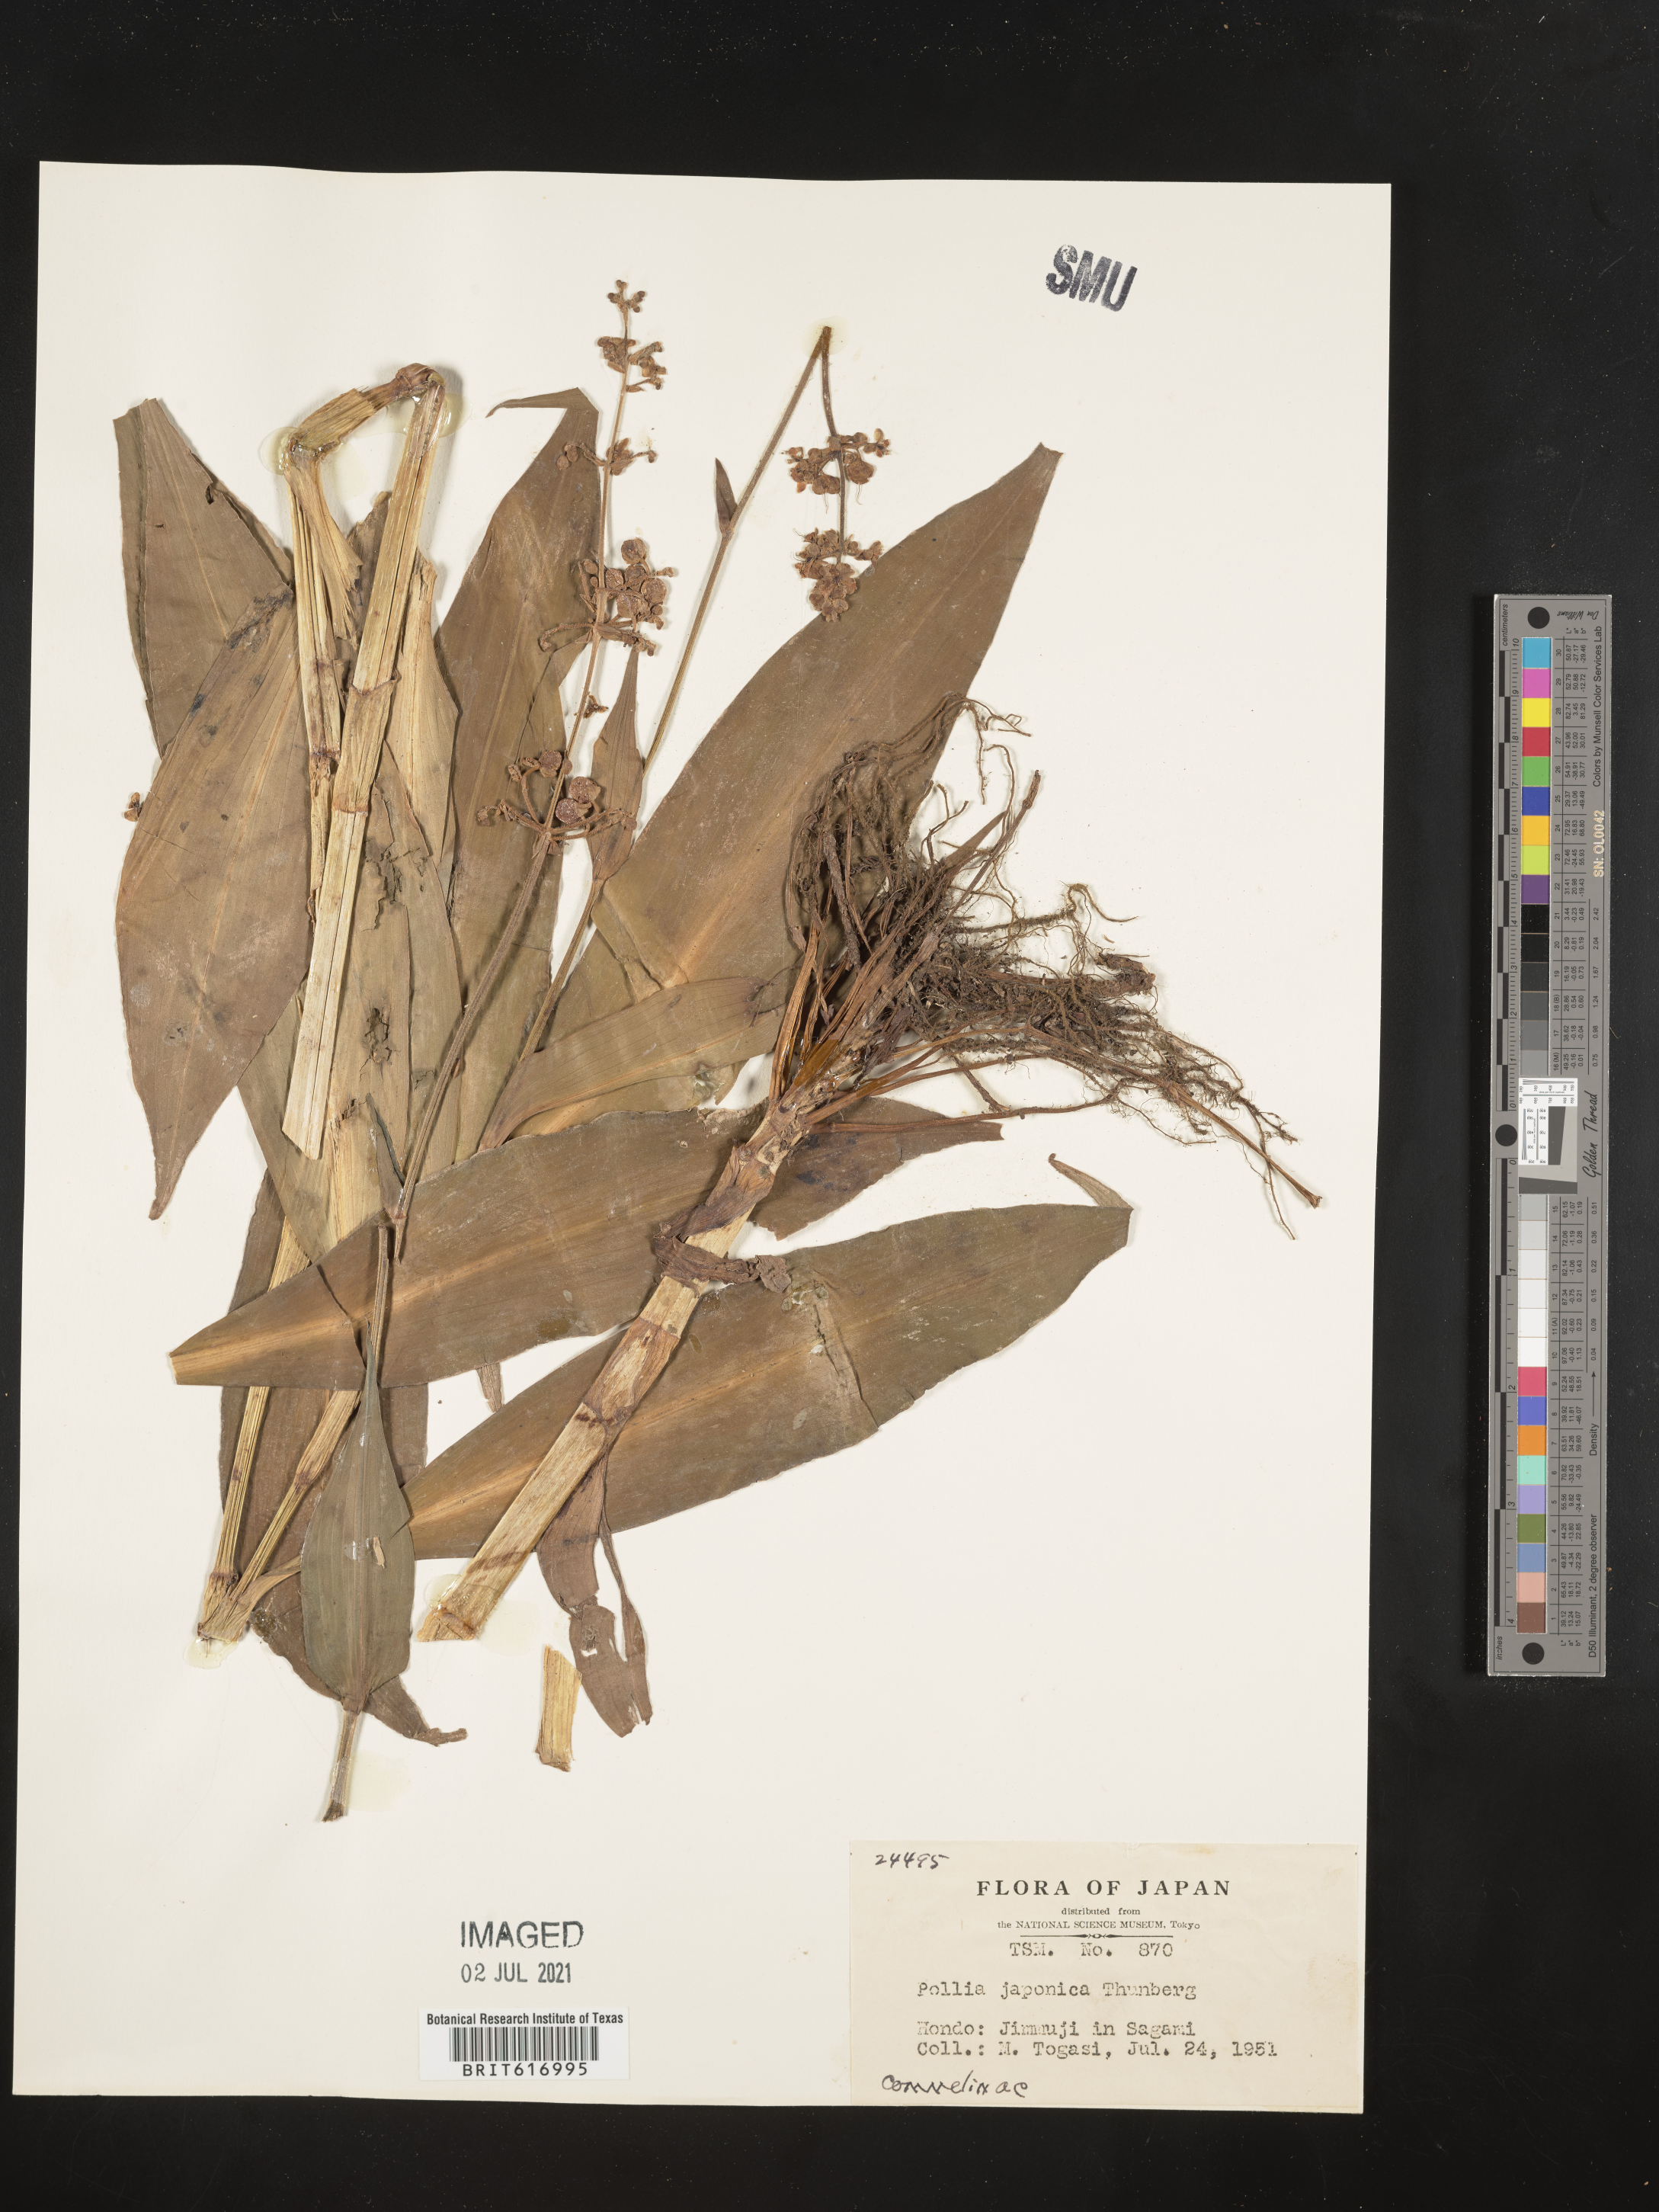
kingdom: Plantae
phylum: Tracheophyta
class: Liliopsida
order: Commelinales
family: Commelinaceae
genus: Pollia
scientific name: Pollia japonica
